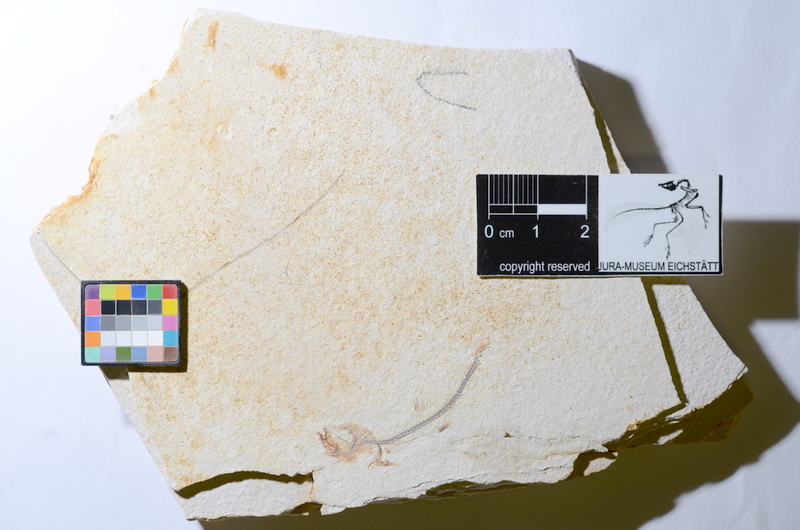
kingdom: Animalia
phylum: Chordata
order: Salmoniformes
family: Orthogonikleithridae
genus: Orthogonikleithrus
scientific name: Orthogonikleithrus hoelli
